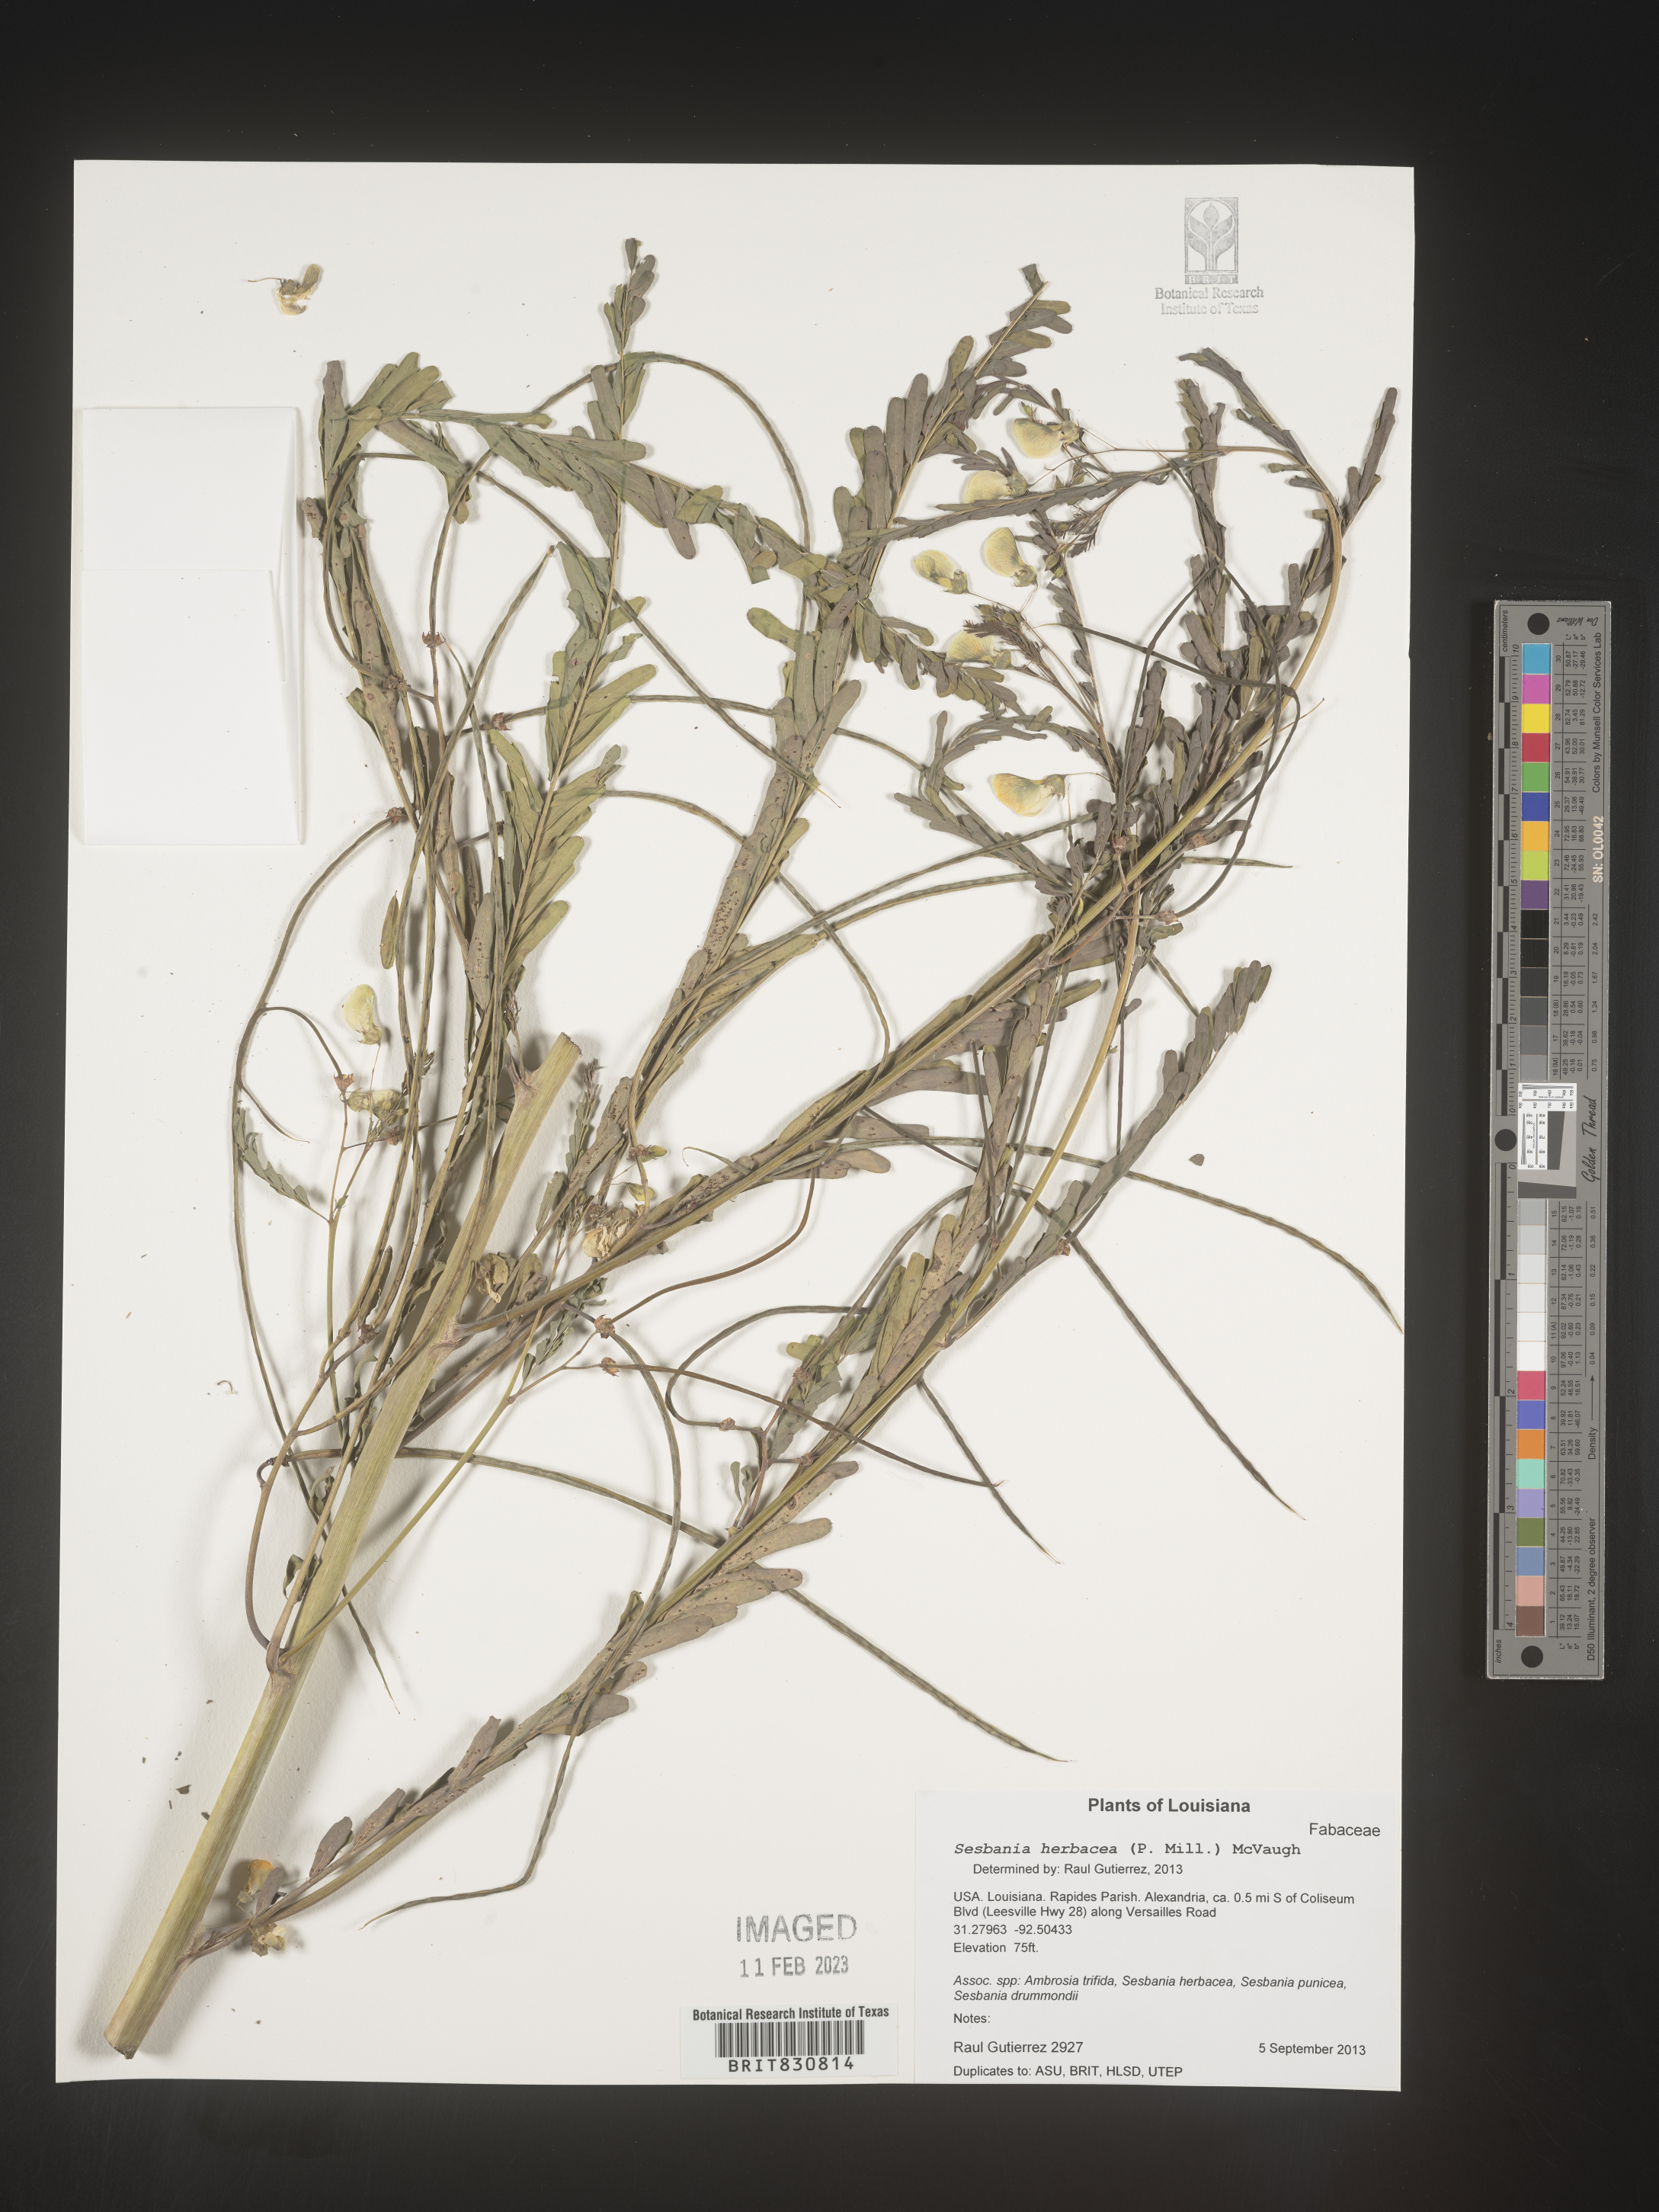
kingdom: Plantae
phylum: Tracheophyta
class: Magnoliopsida
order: Fabales
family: Fabaceae
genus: Sesbania
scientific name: Sesbania herbacea
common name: Bigpod sesbania
